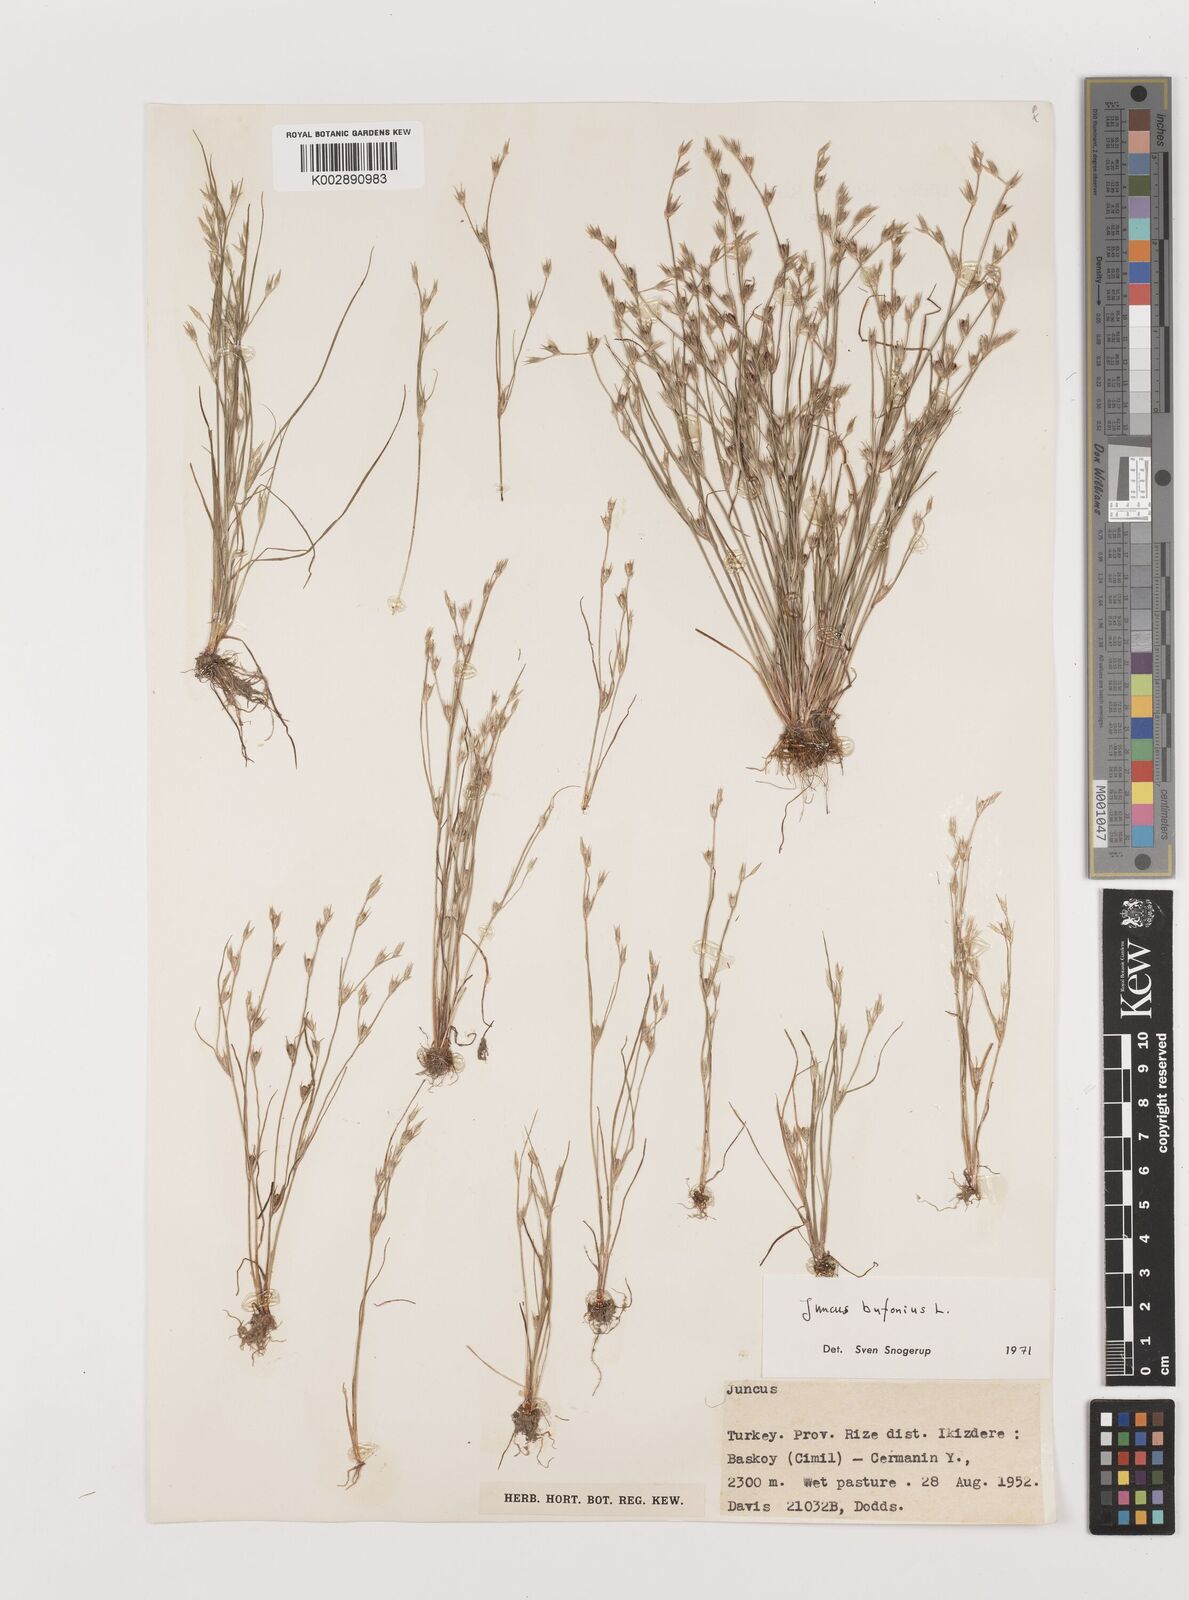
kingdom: Plantae
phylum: Tracheophyta
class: Liliopsida
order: Poales
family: Juncaceae
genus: Juncus
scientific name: Juncus bufonius
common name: Toad rush
